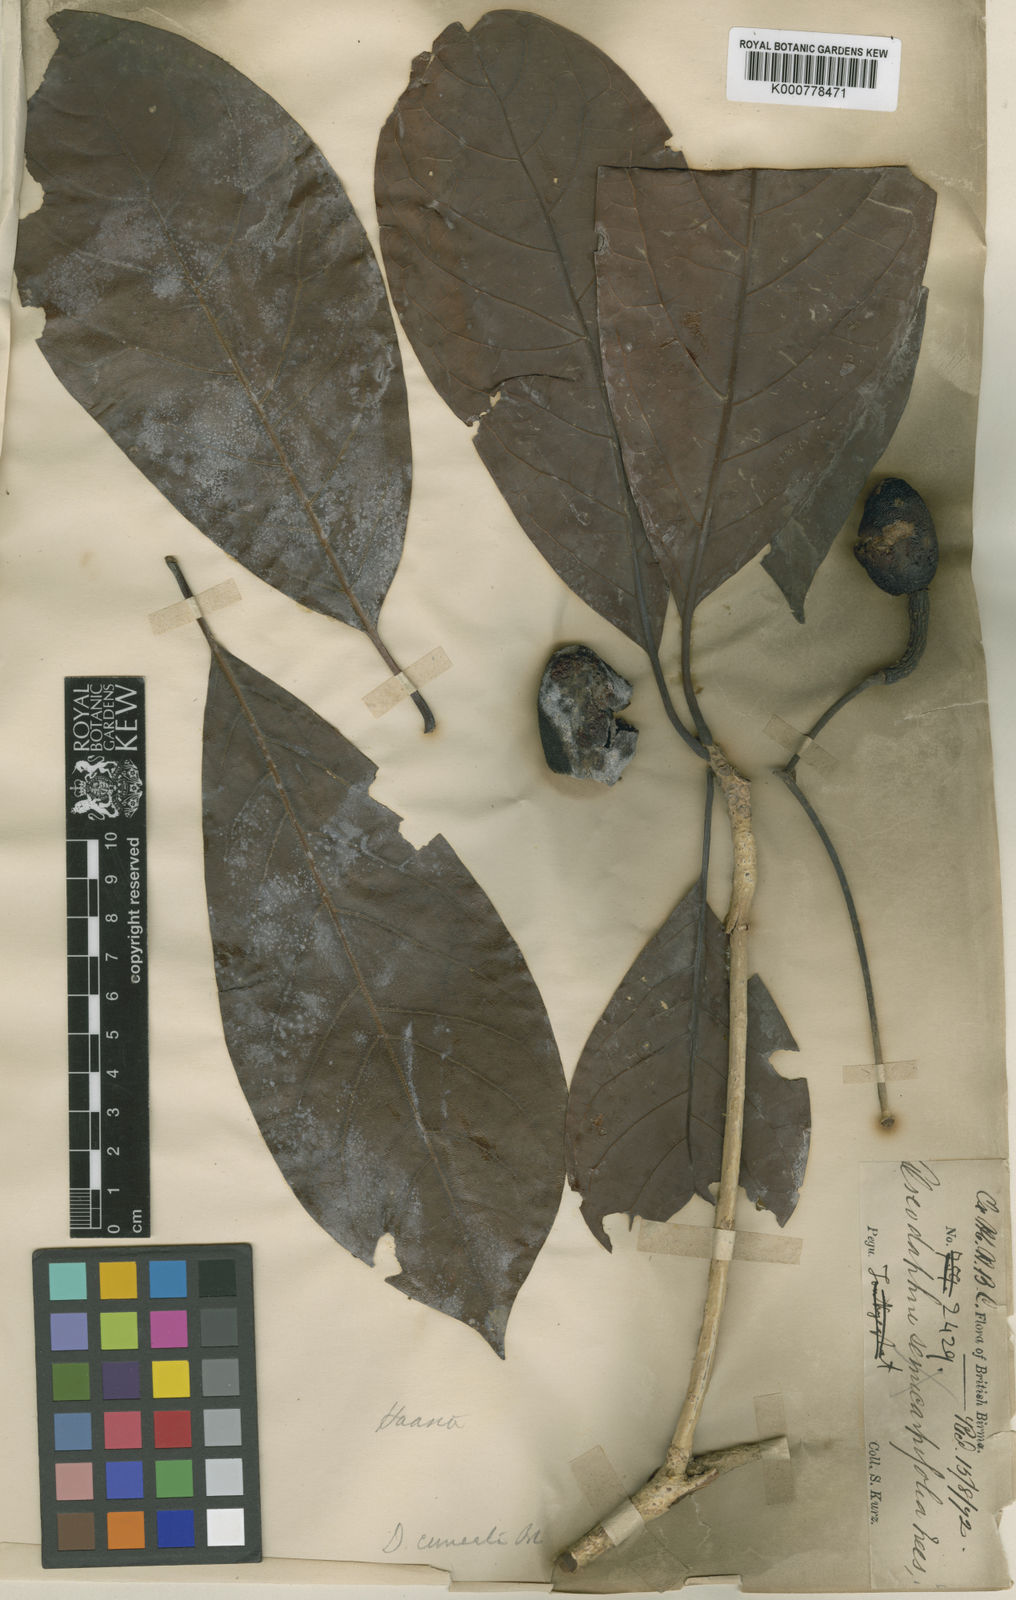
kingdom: Plantae
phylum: Tracheophyta
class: Magnoliopsida
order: Laurales
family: Lauraceae
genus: Dehaasia
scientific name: Dehaasia kurzii
